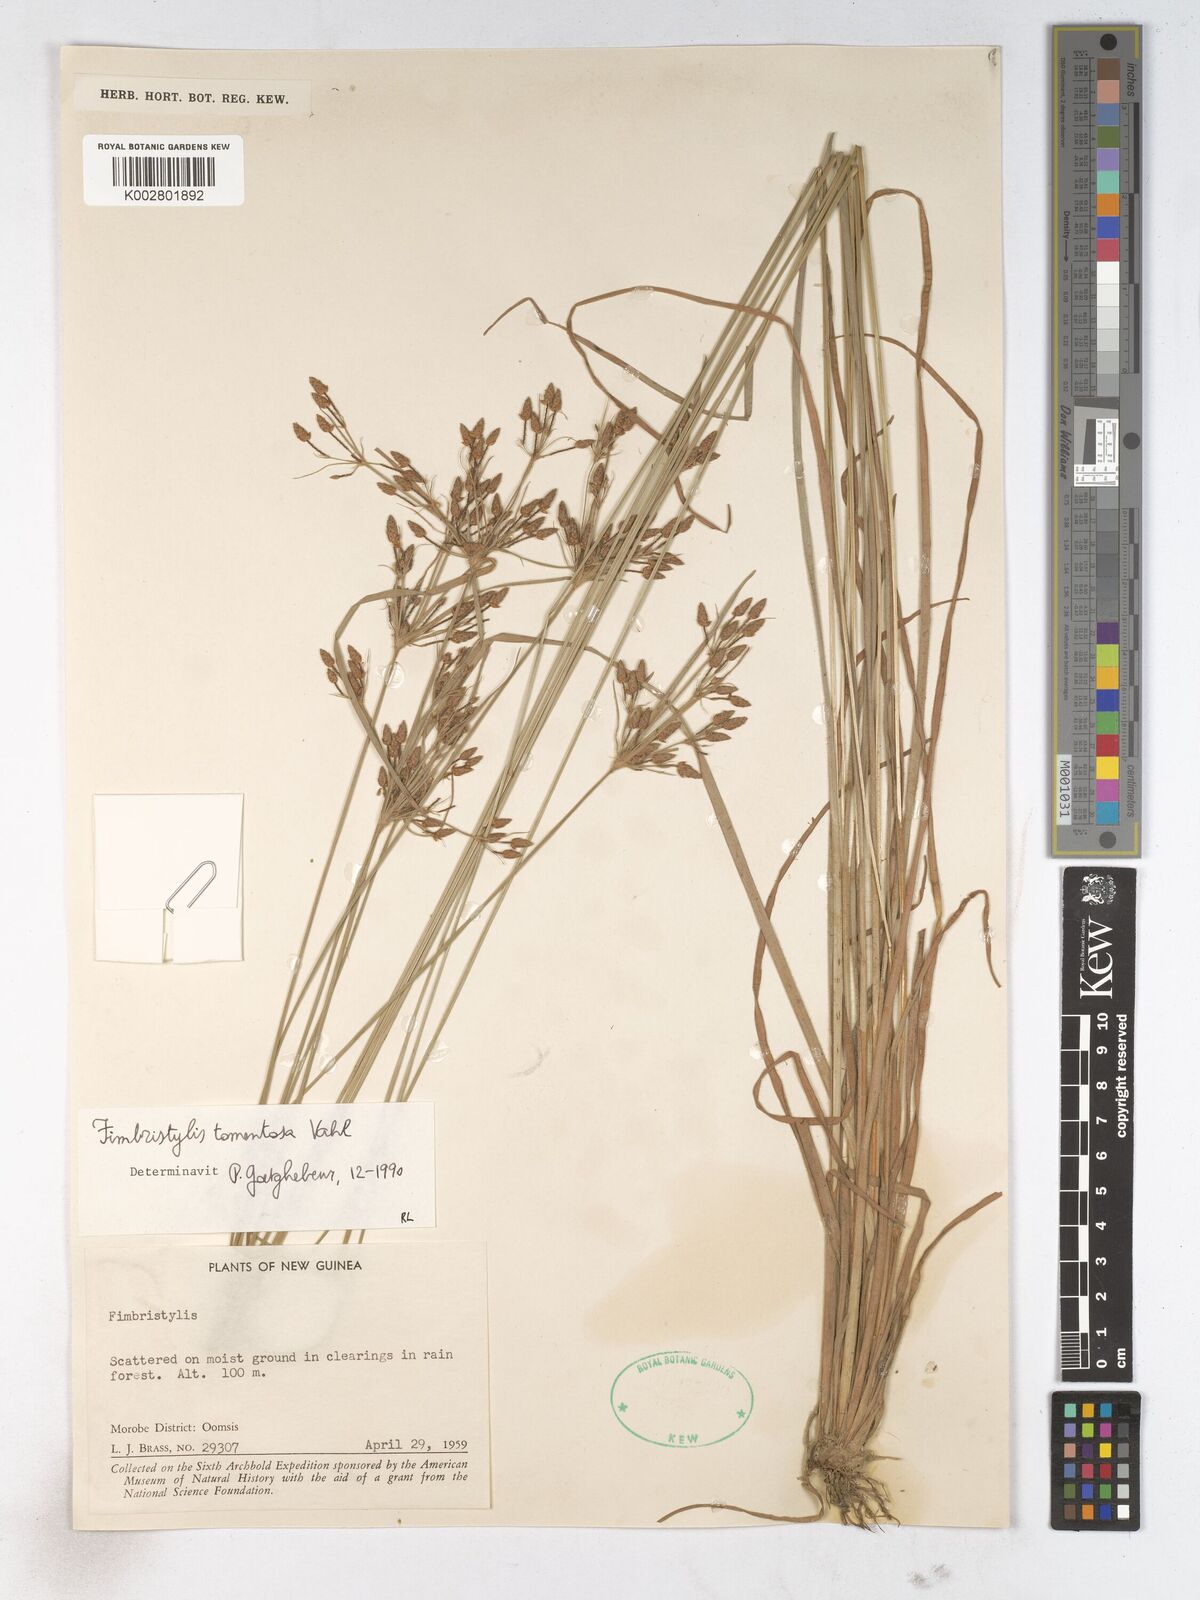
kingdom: Plantae
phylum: Tracheophyta
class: Liliopsida
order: Poales
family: Cyperaceae
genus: Fimbristylis
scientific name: Fimbristylis dichotoma
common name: Forked fimbry
